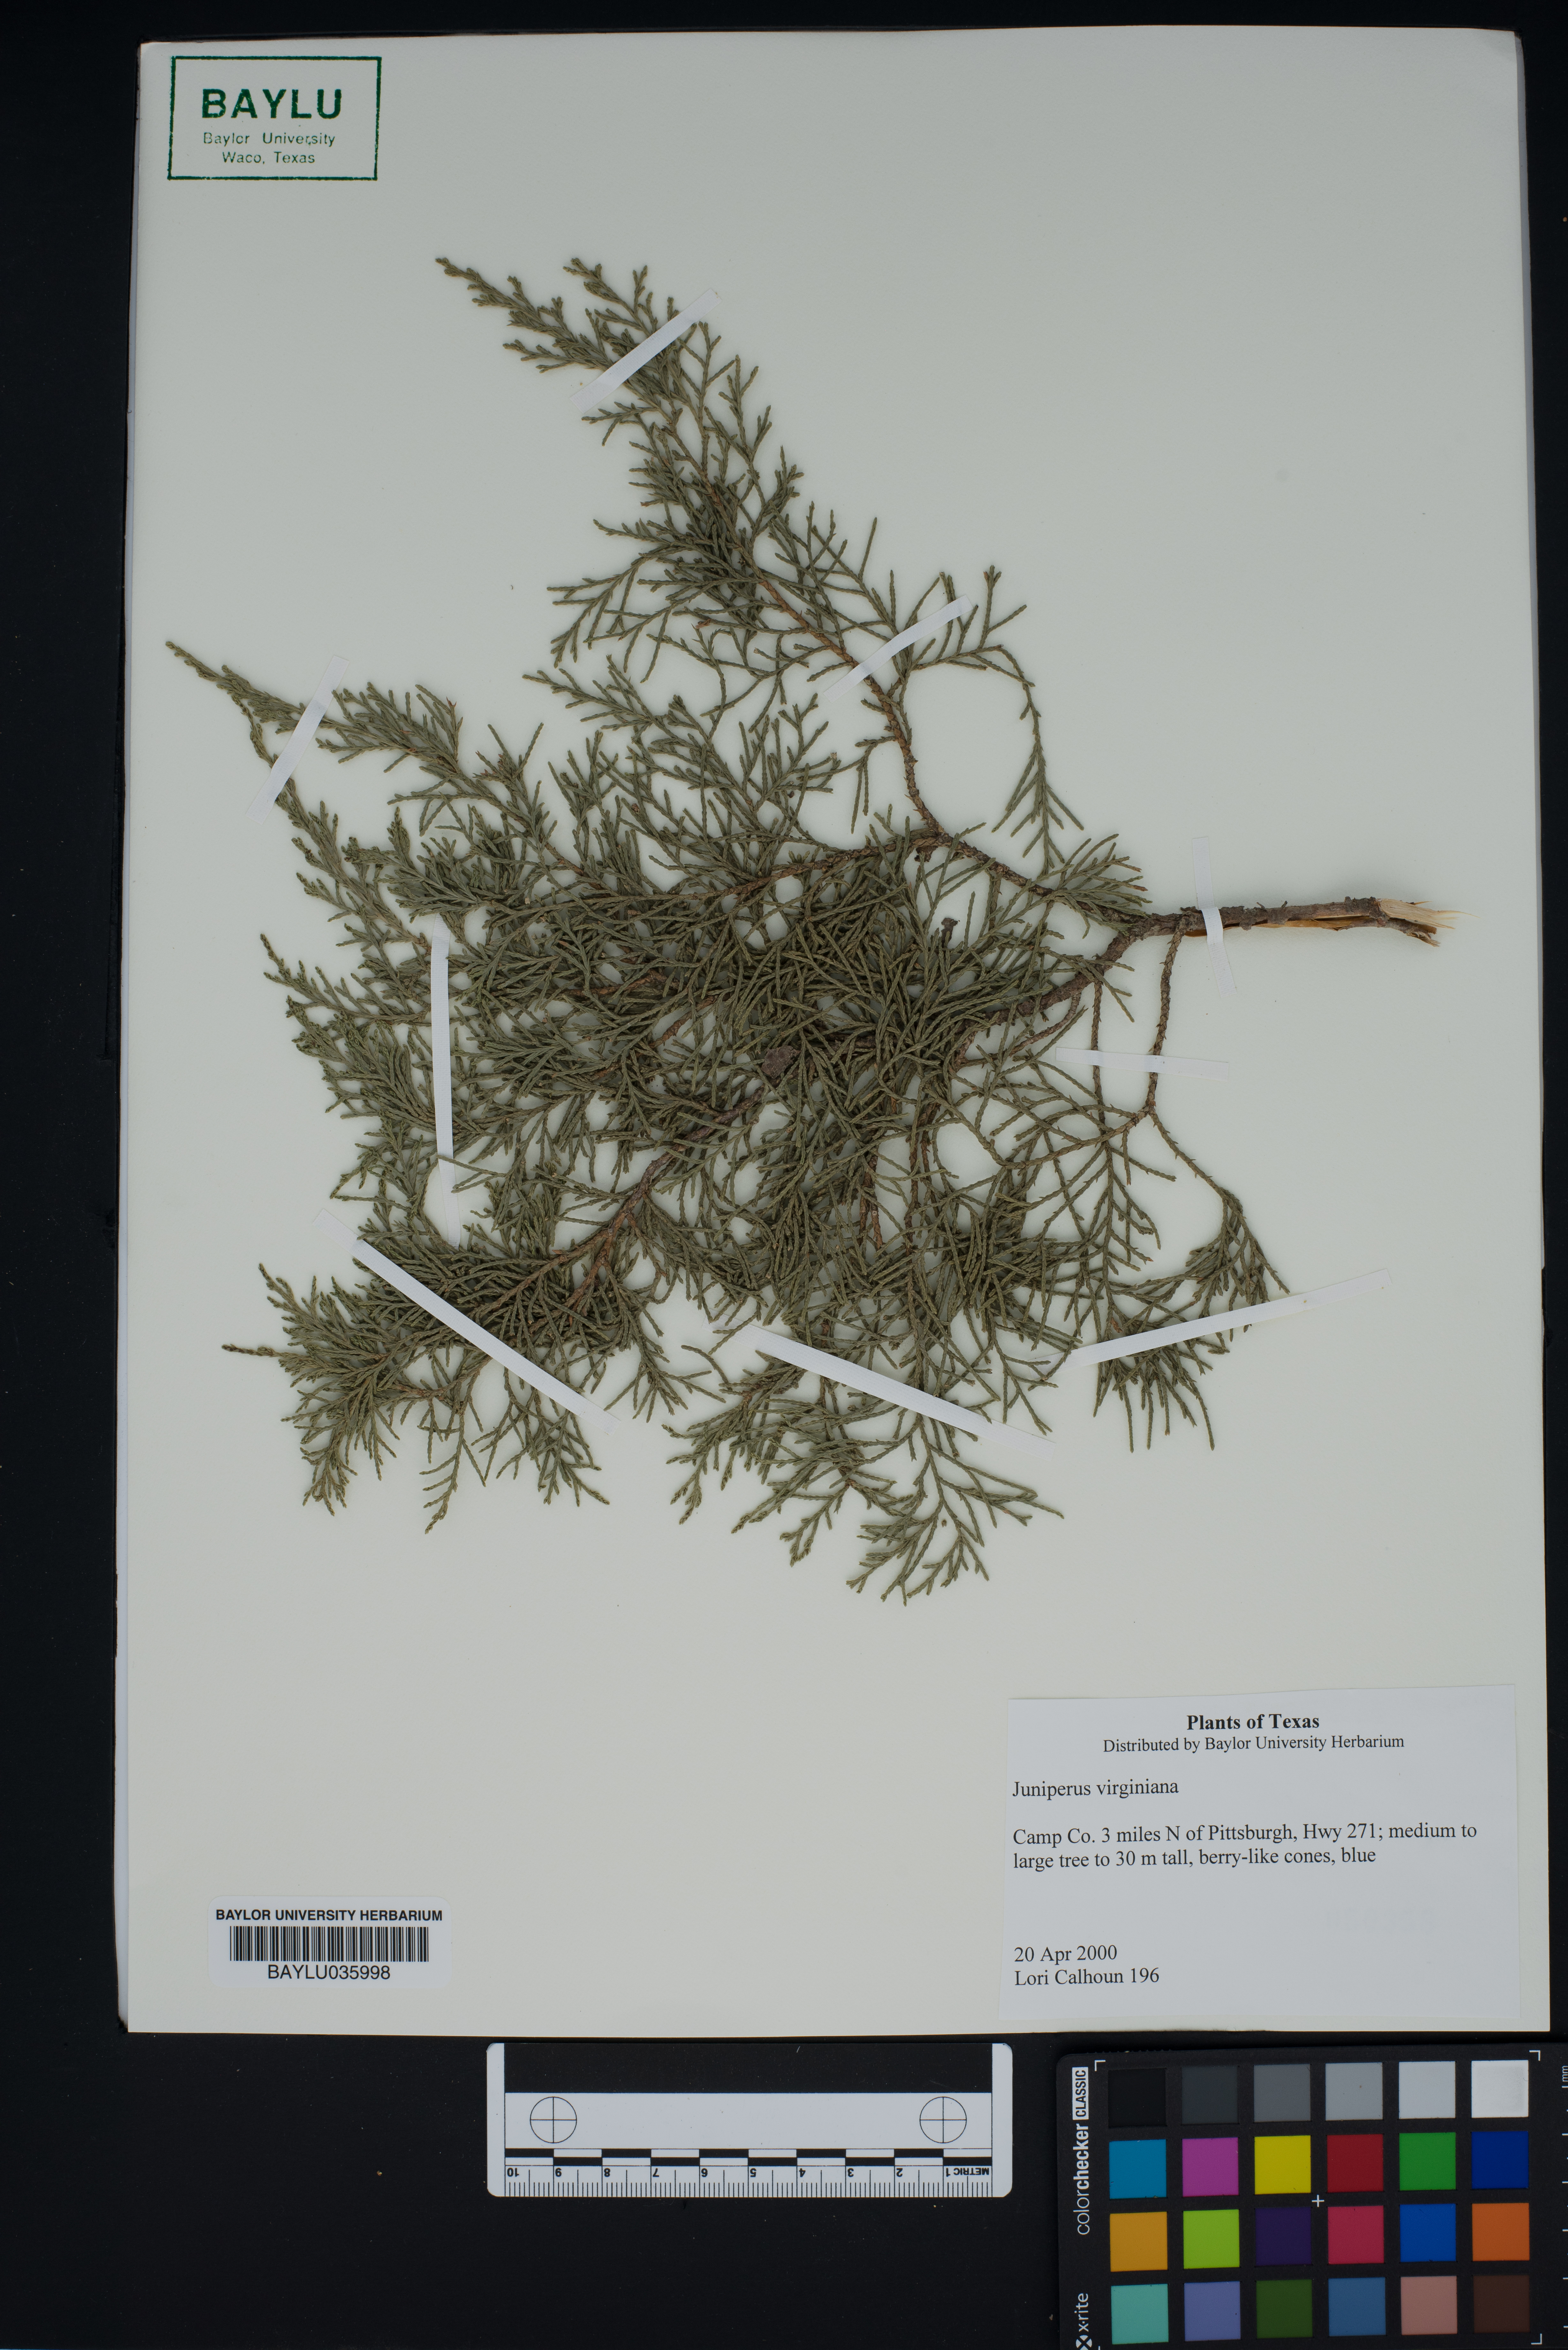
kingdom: Plantae
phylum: Tracheophyta
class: Pinopsida
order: Pinales
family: Cupressaceae
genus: Juniperus
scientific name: Juniperus virginiana
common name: Red juniper
